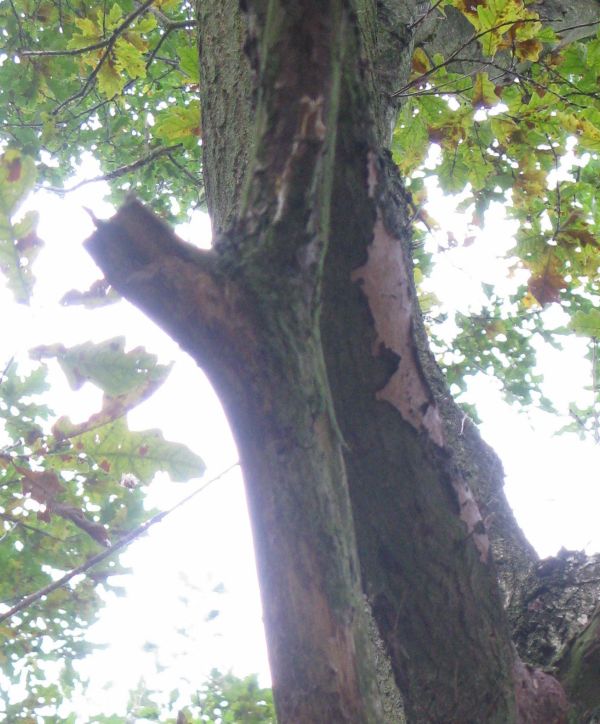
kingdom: Fungi
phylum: Basidiomycota
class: Agaricomycetes
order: Russulales
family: Peniophoraceae
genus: Peniophora
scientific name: Peniophora quercina
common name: ege-voksskind
